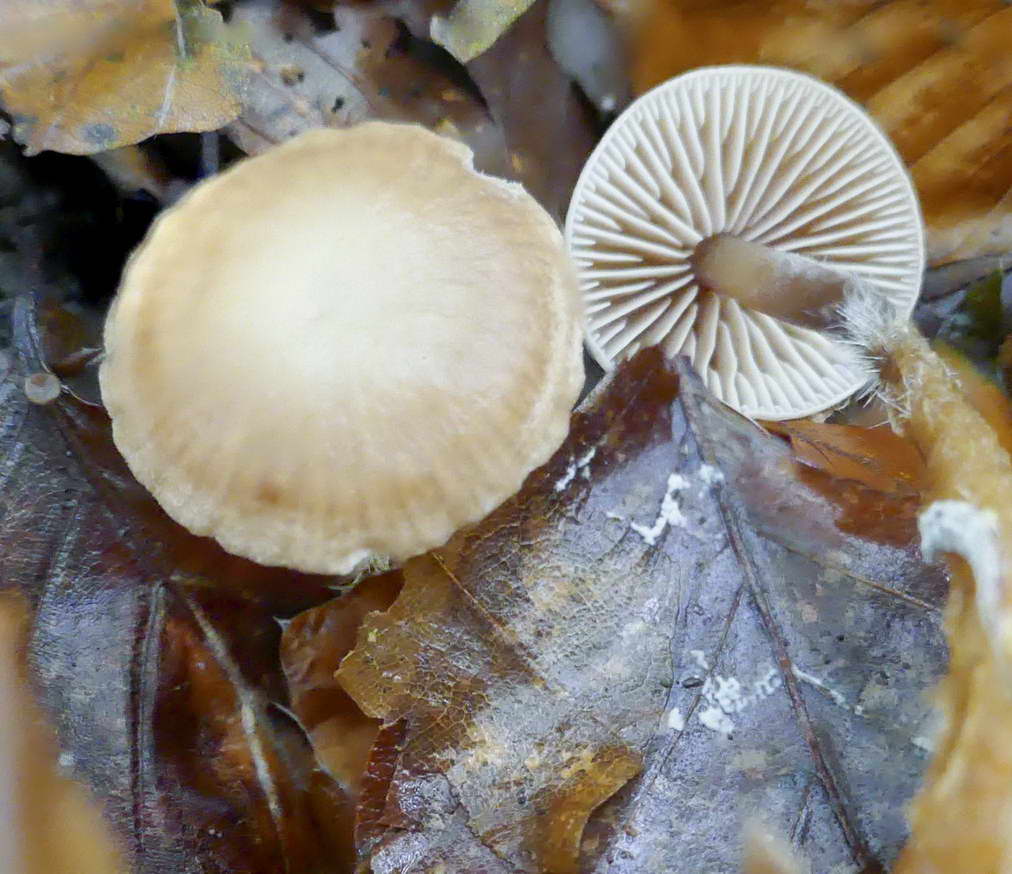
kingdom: Fungi
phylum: Basidiomycota
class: Agaricomycetes
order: Agaricales
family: Omphalotaceae
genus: Gymnopus
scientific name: Gymnopus fagiphilus
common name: bøgeløv-fladhat
